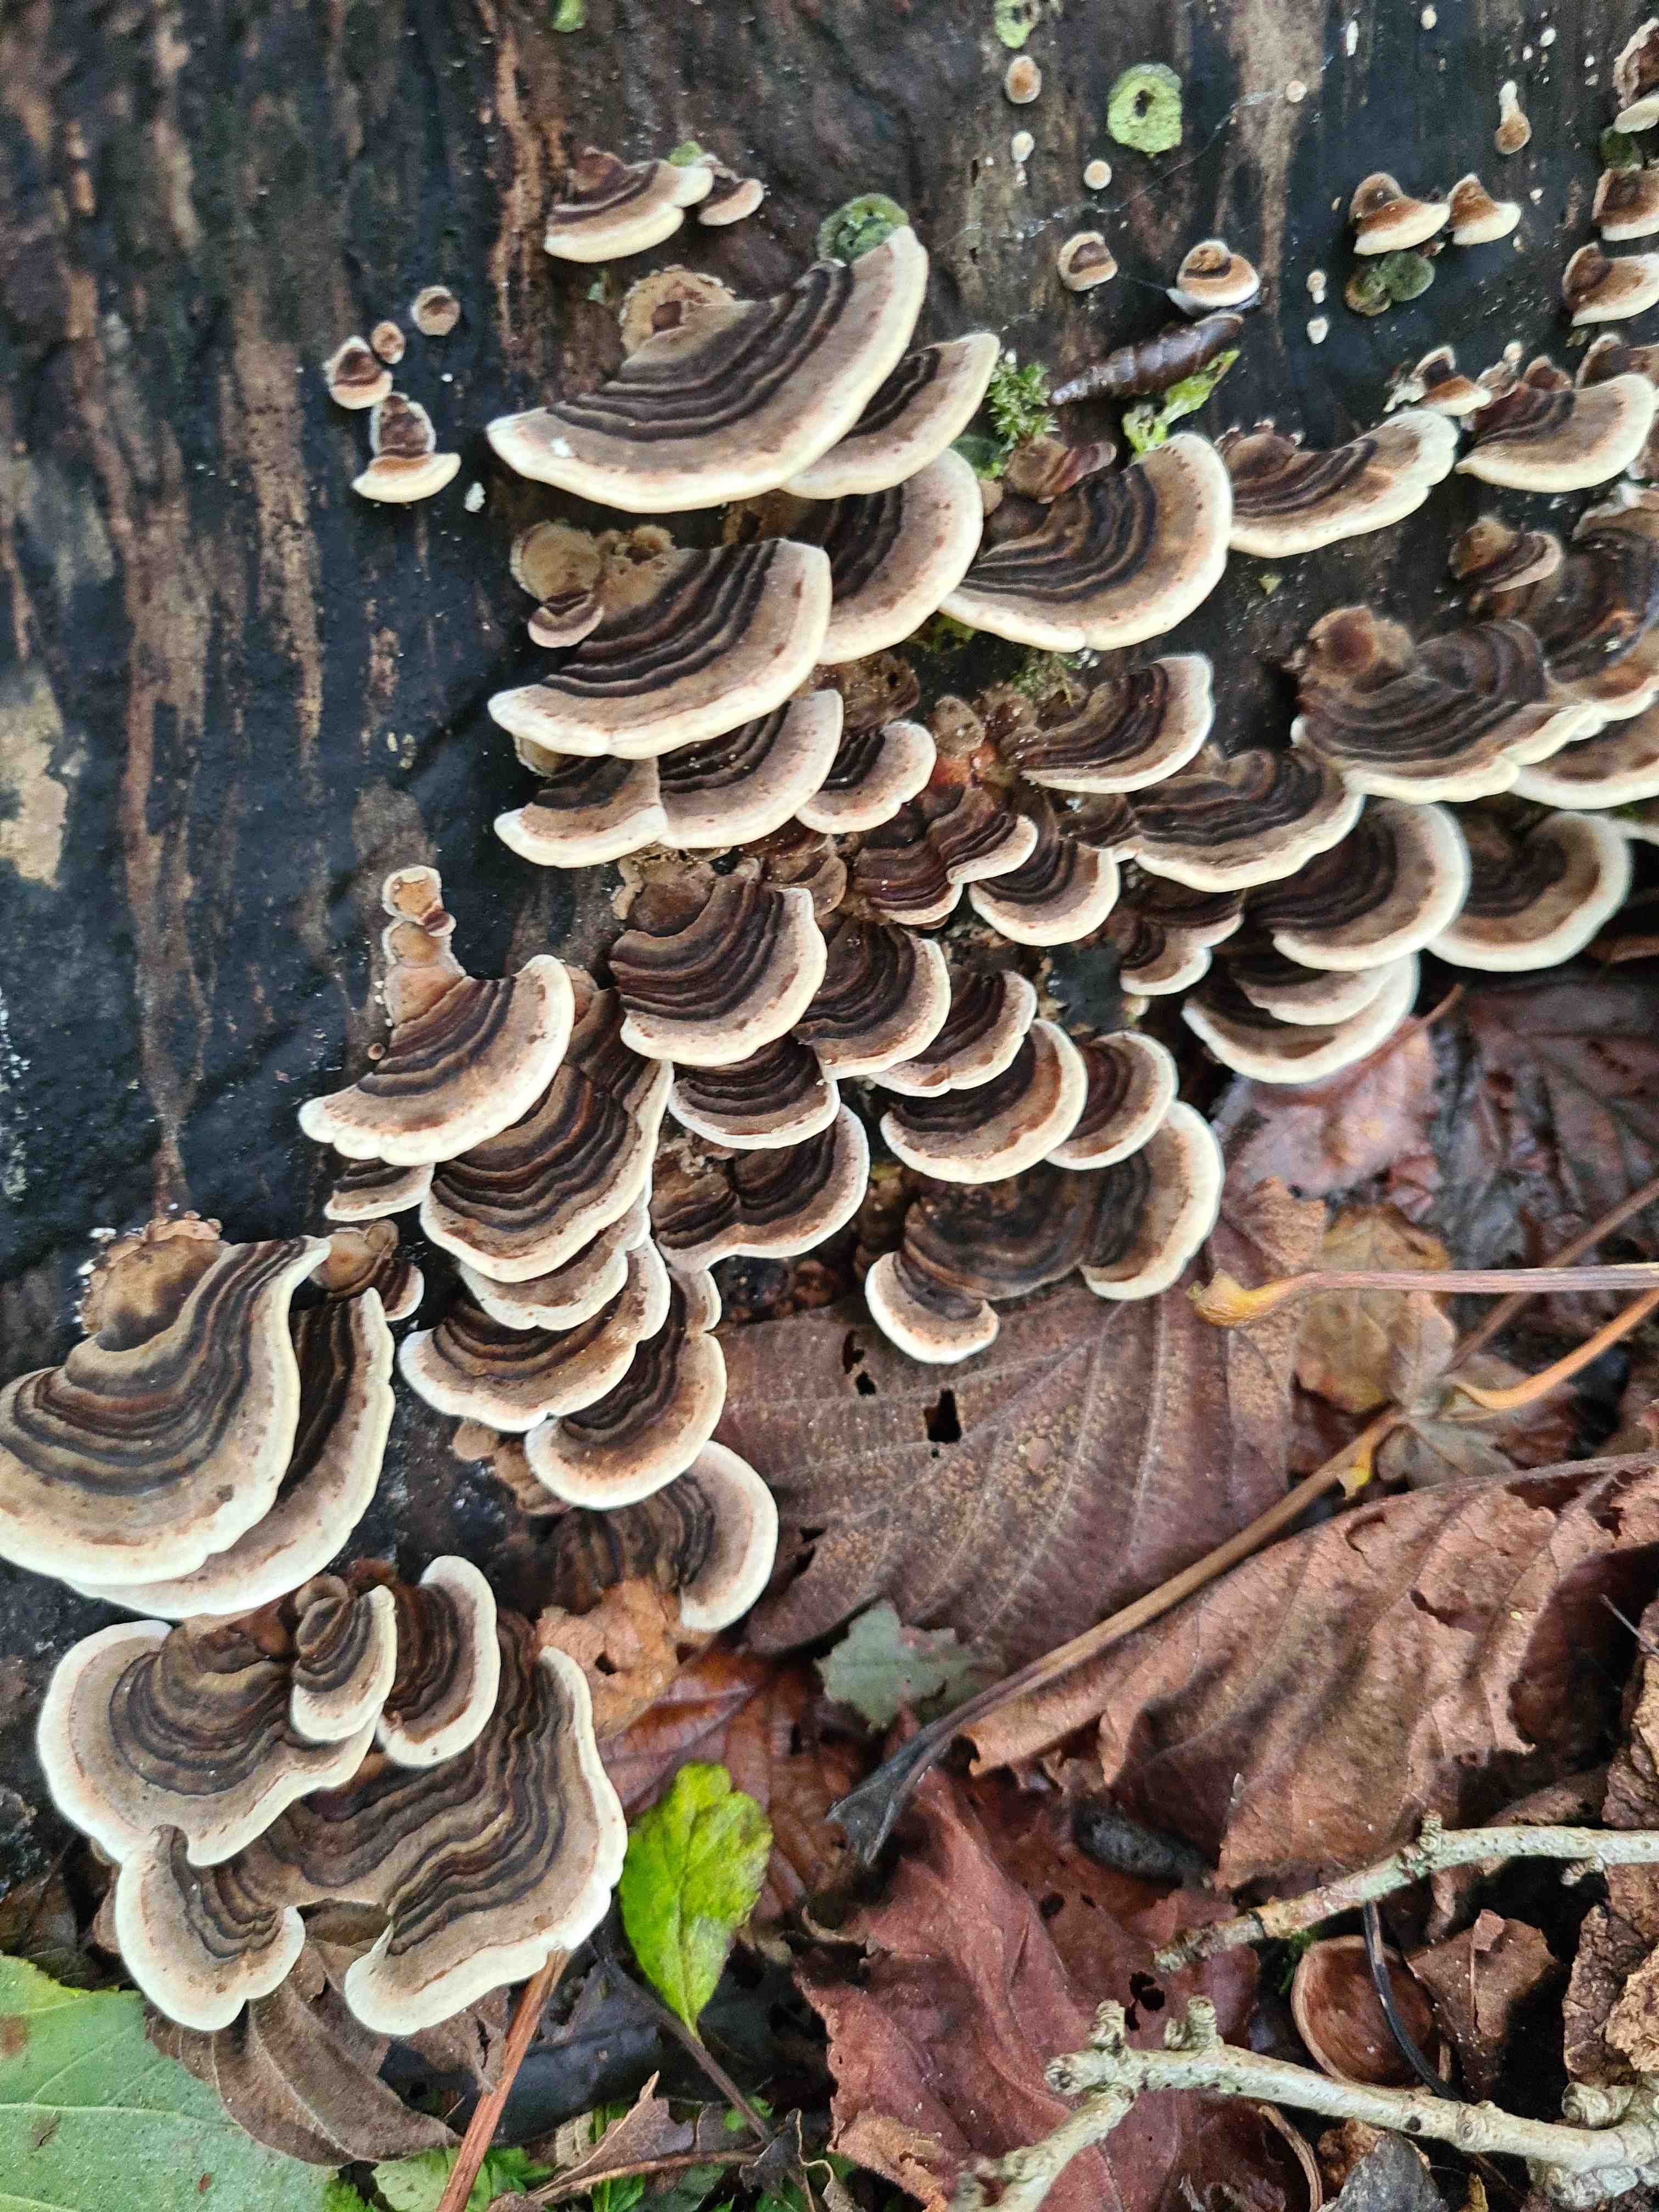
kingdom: Fungi
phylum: Basidiomycota
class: Agaricomycetes
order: Polyporales
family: Polyporaceae
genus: Trametes
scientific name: Trametes versicolor
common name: broget læderporesvamp
